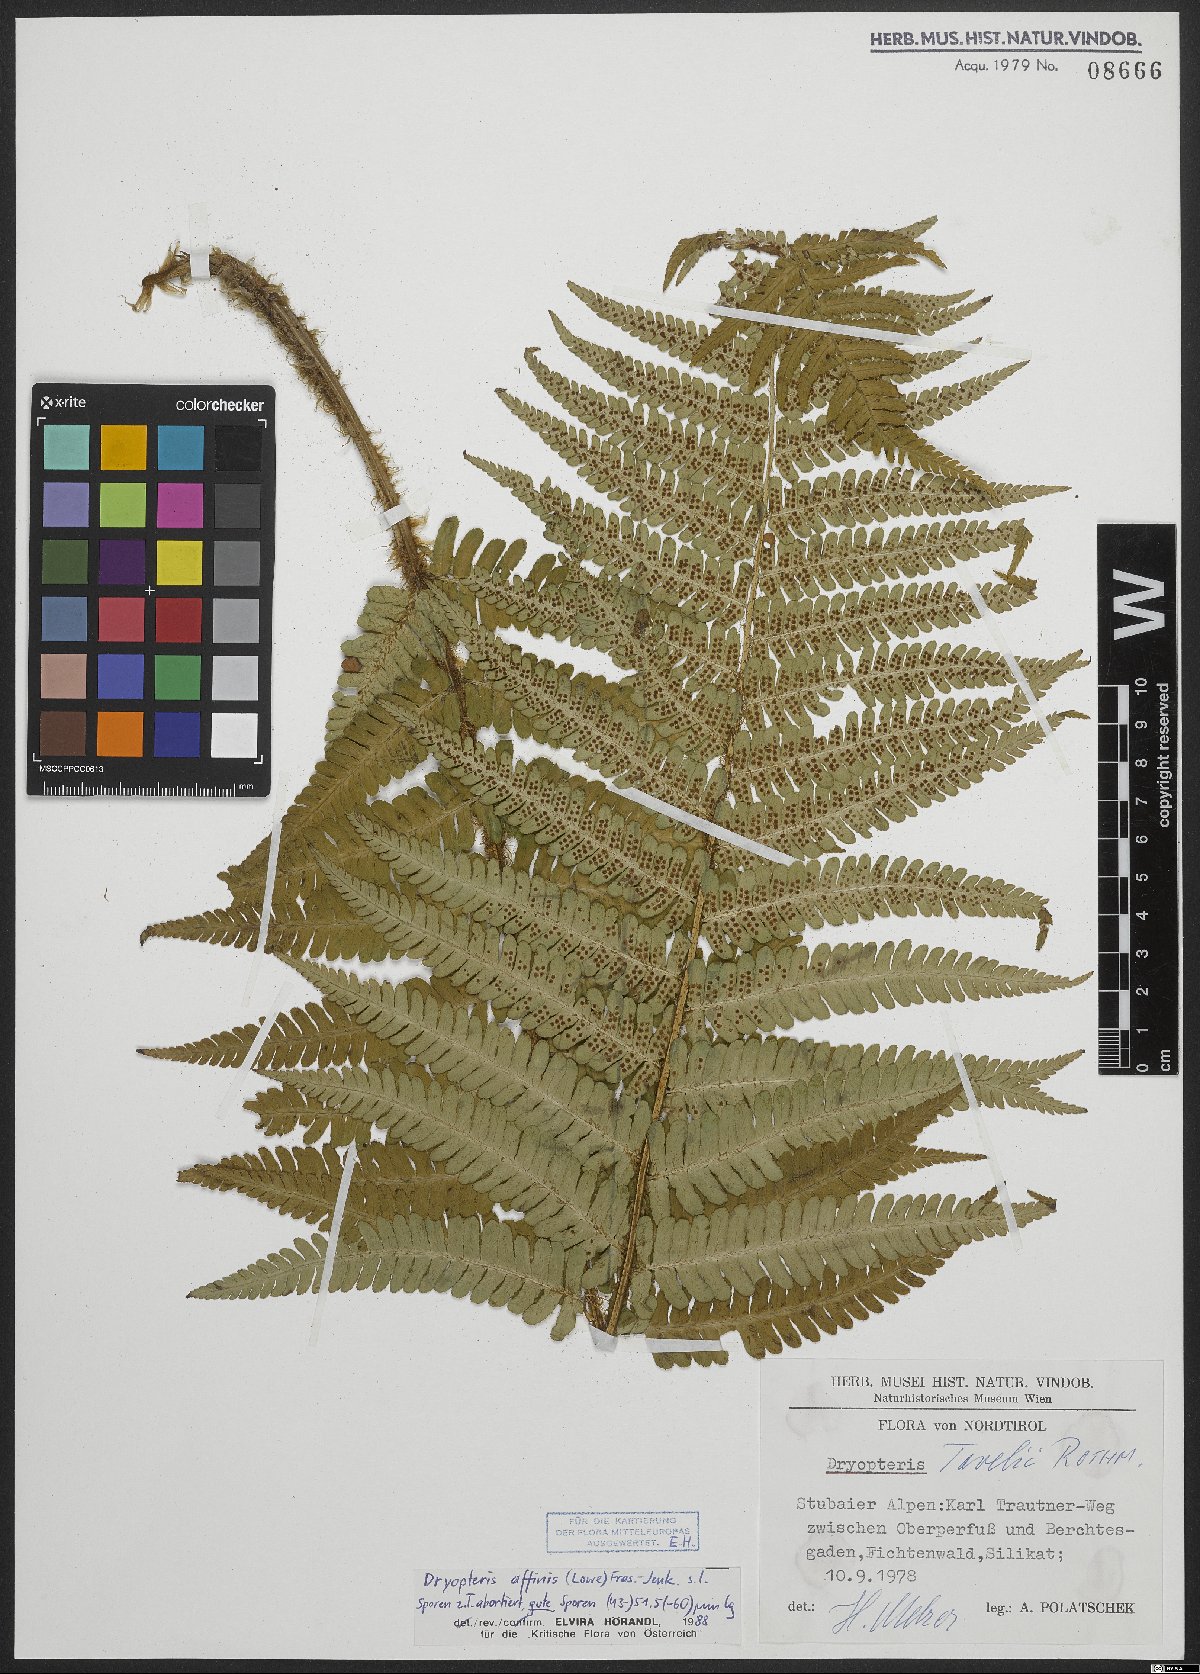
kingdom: Plantae
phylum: Tracheophyta
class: Polypodiopsida
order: Polypodiales
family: Dryopteridaceae
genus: Dryopteris
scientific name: Dryopteris borreri
